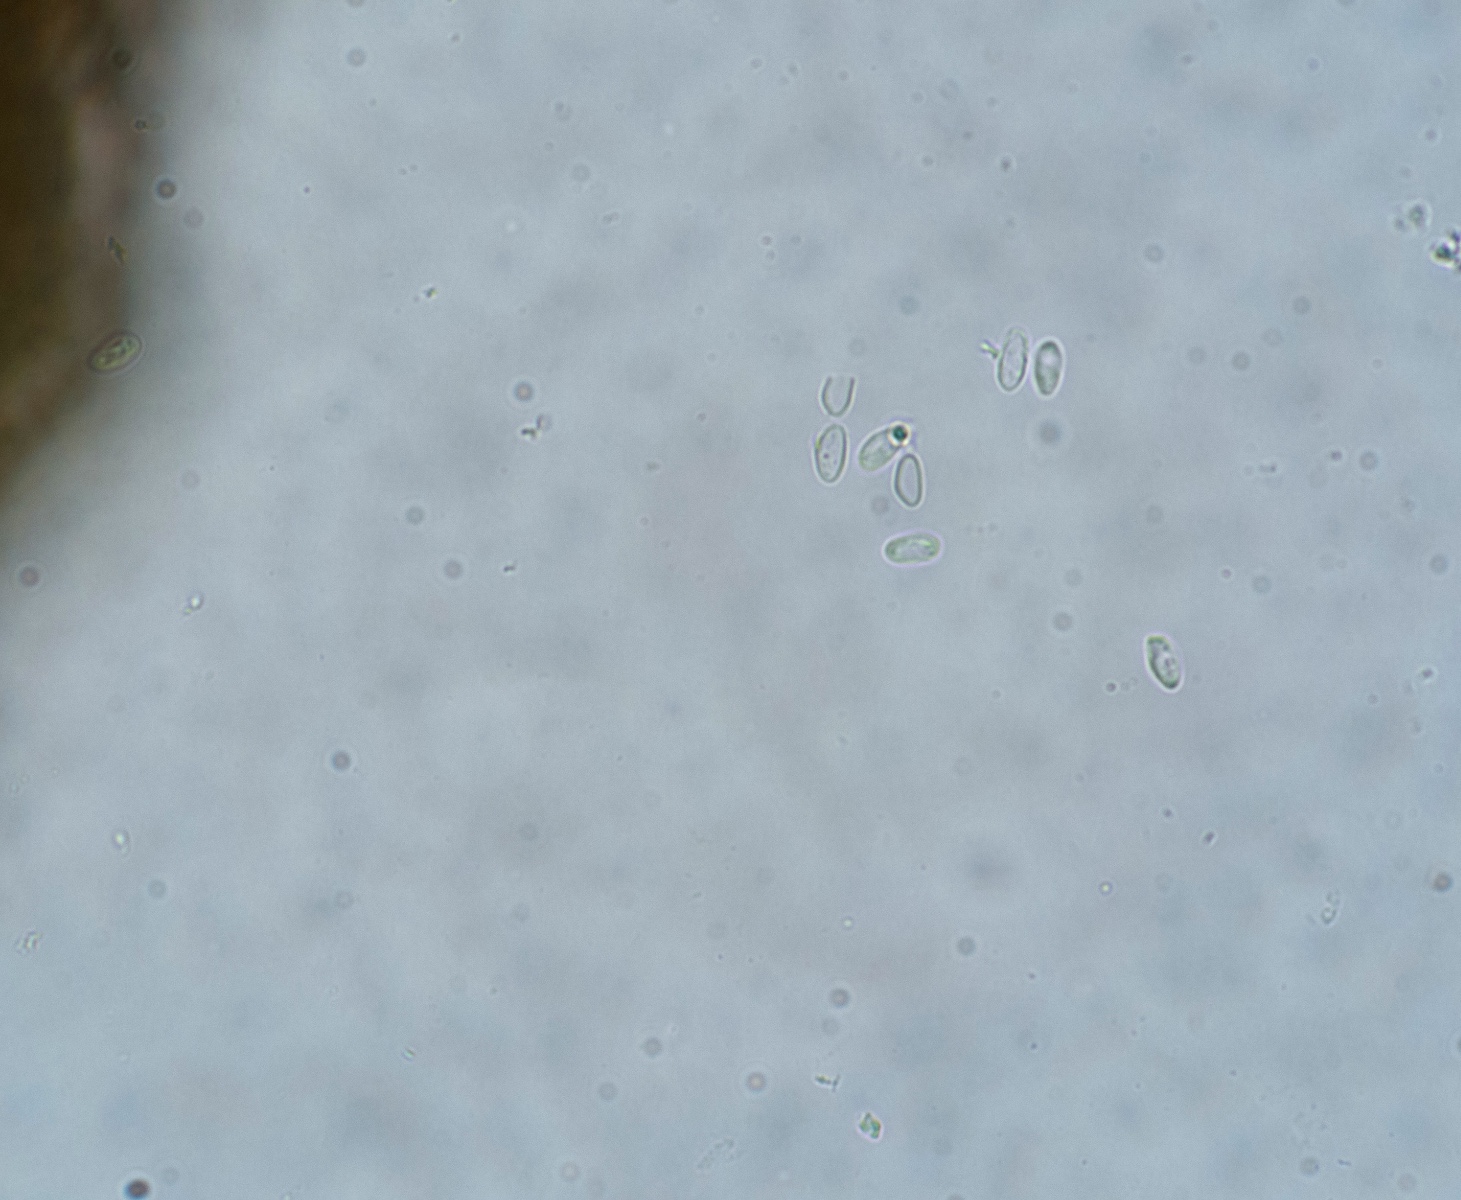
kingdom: Fungi
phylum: Ascomycota
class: Dothideomycetes
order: Pleosporales
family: Didymellaceae
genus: Boeremia
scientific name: Boeremia exigua
